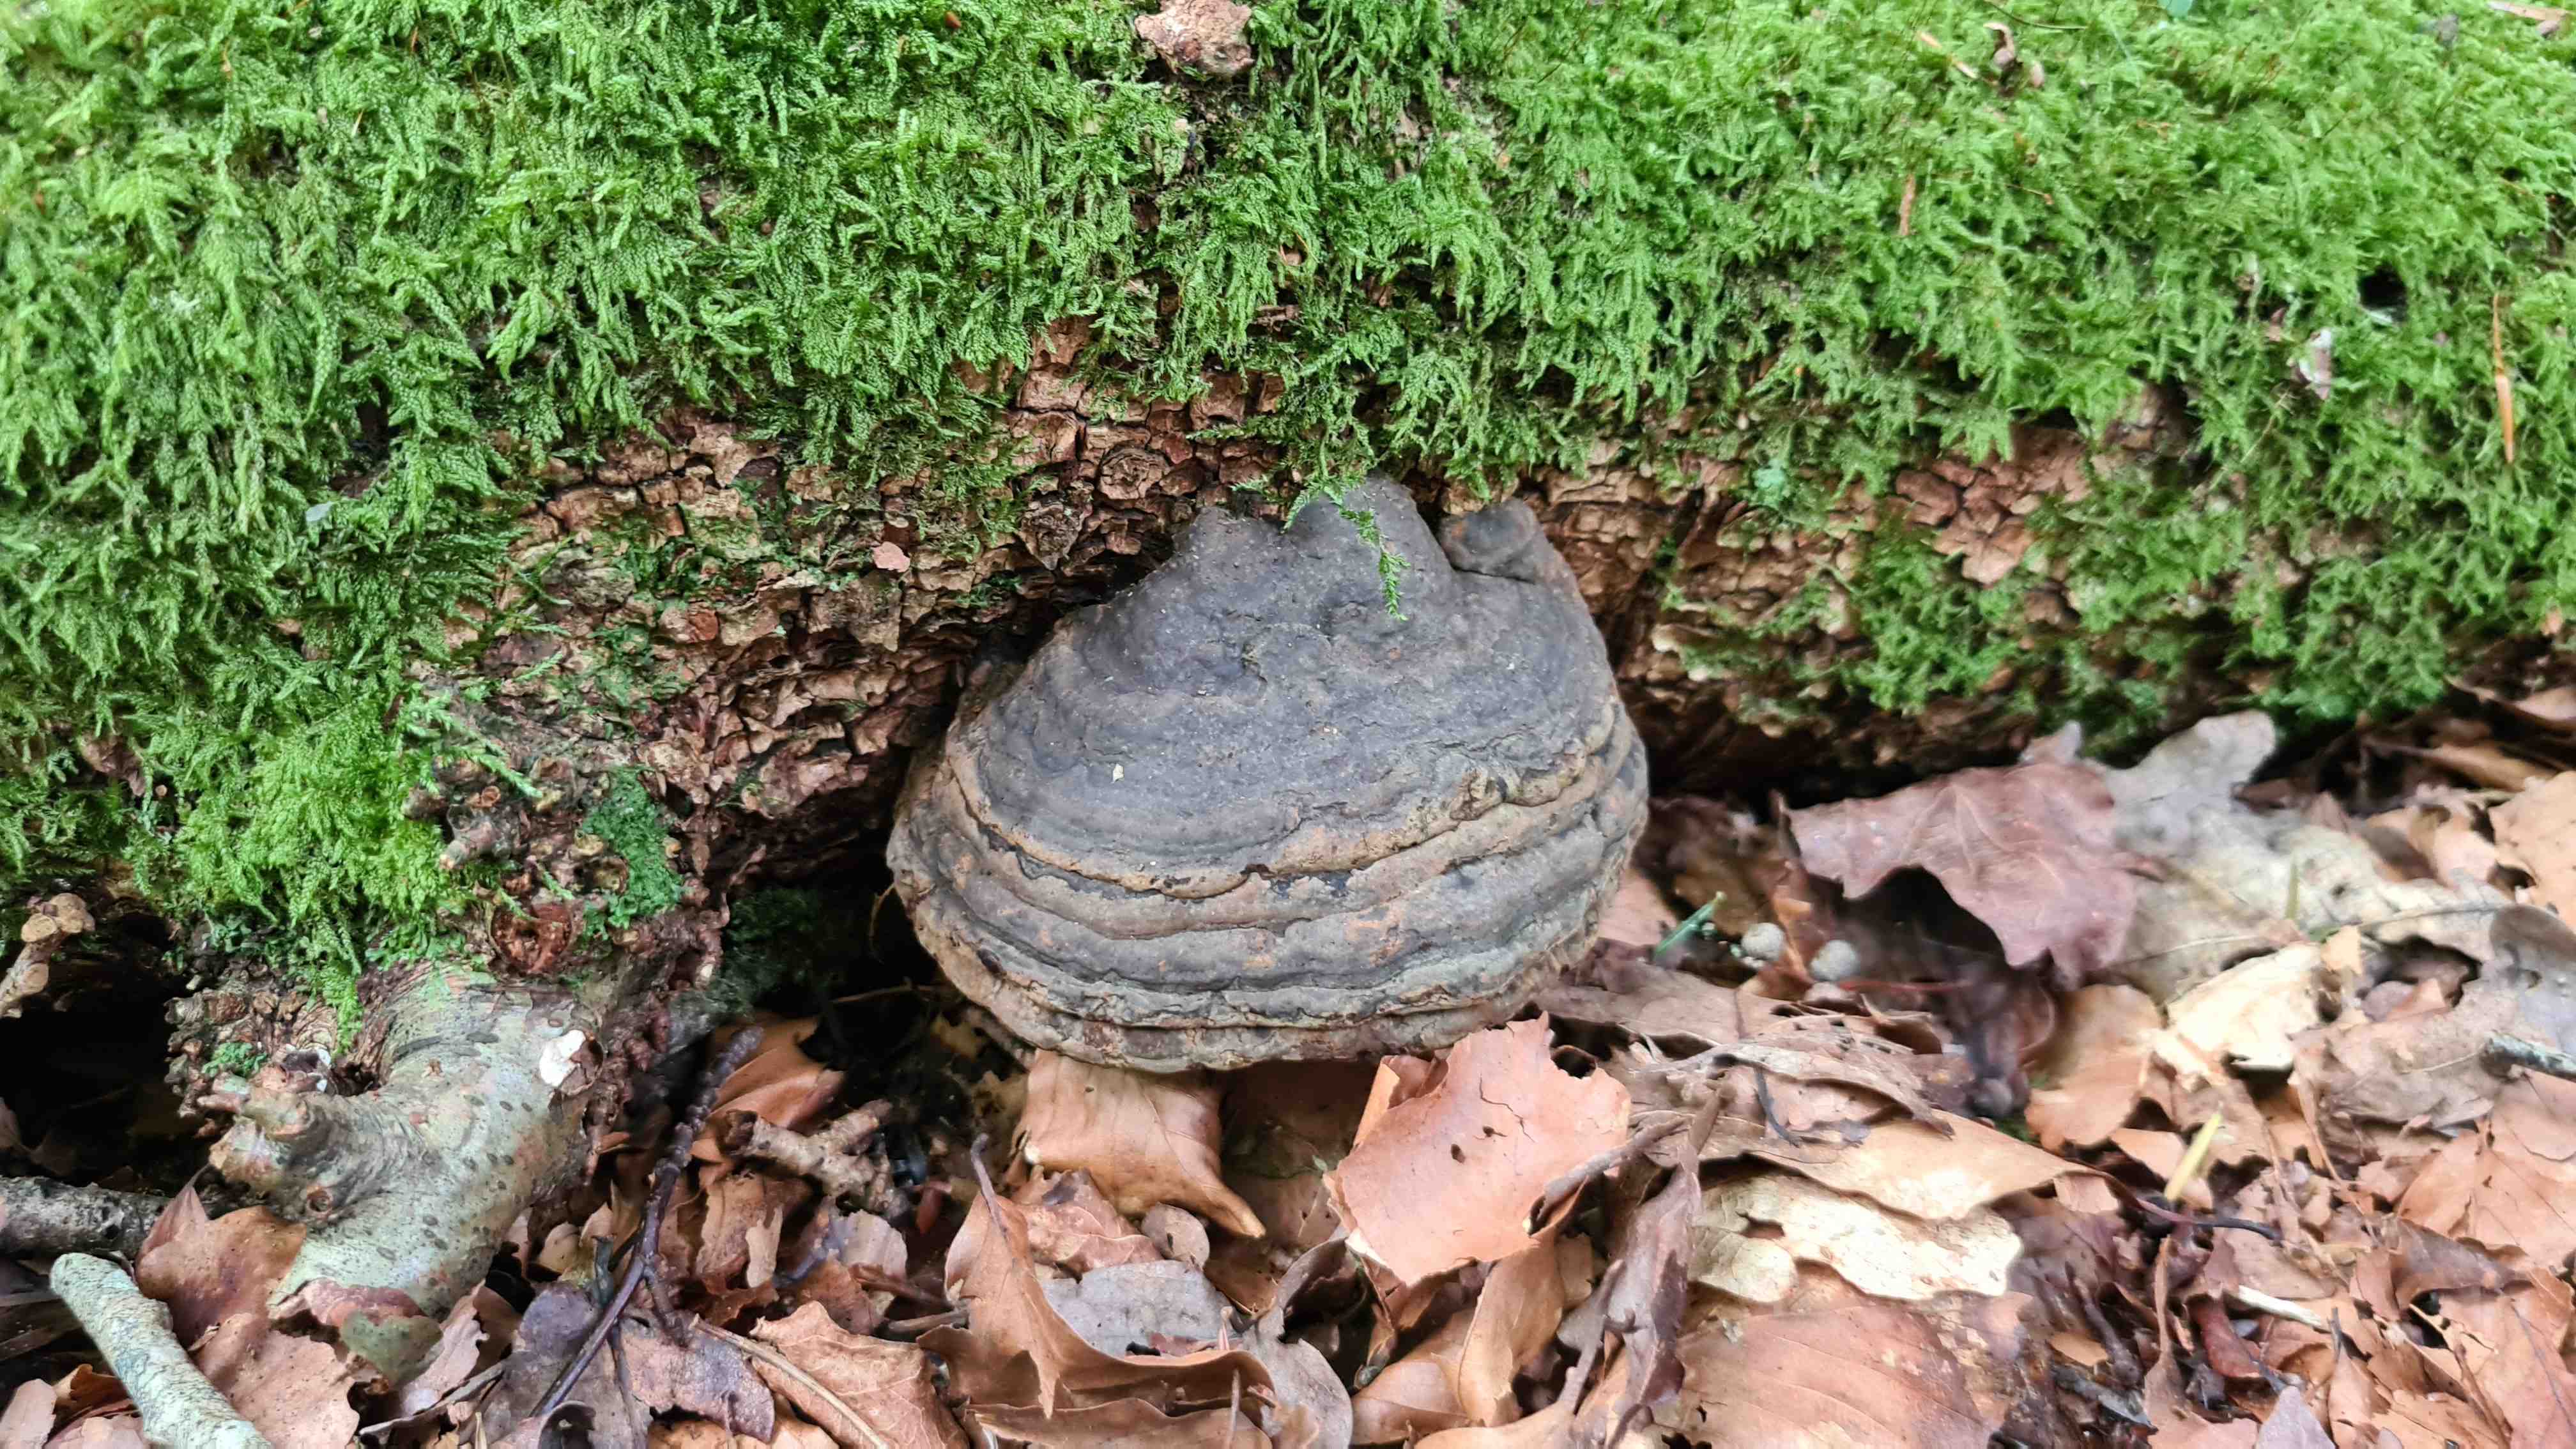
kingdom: Fungi
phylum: Basidiomycota
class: Agaricomycetes
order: Polyporales
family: Polyporaceae
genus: Fomes
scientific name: Fomes fomentarius
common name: tøndersvamp
